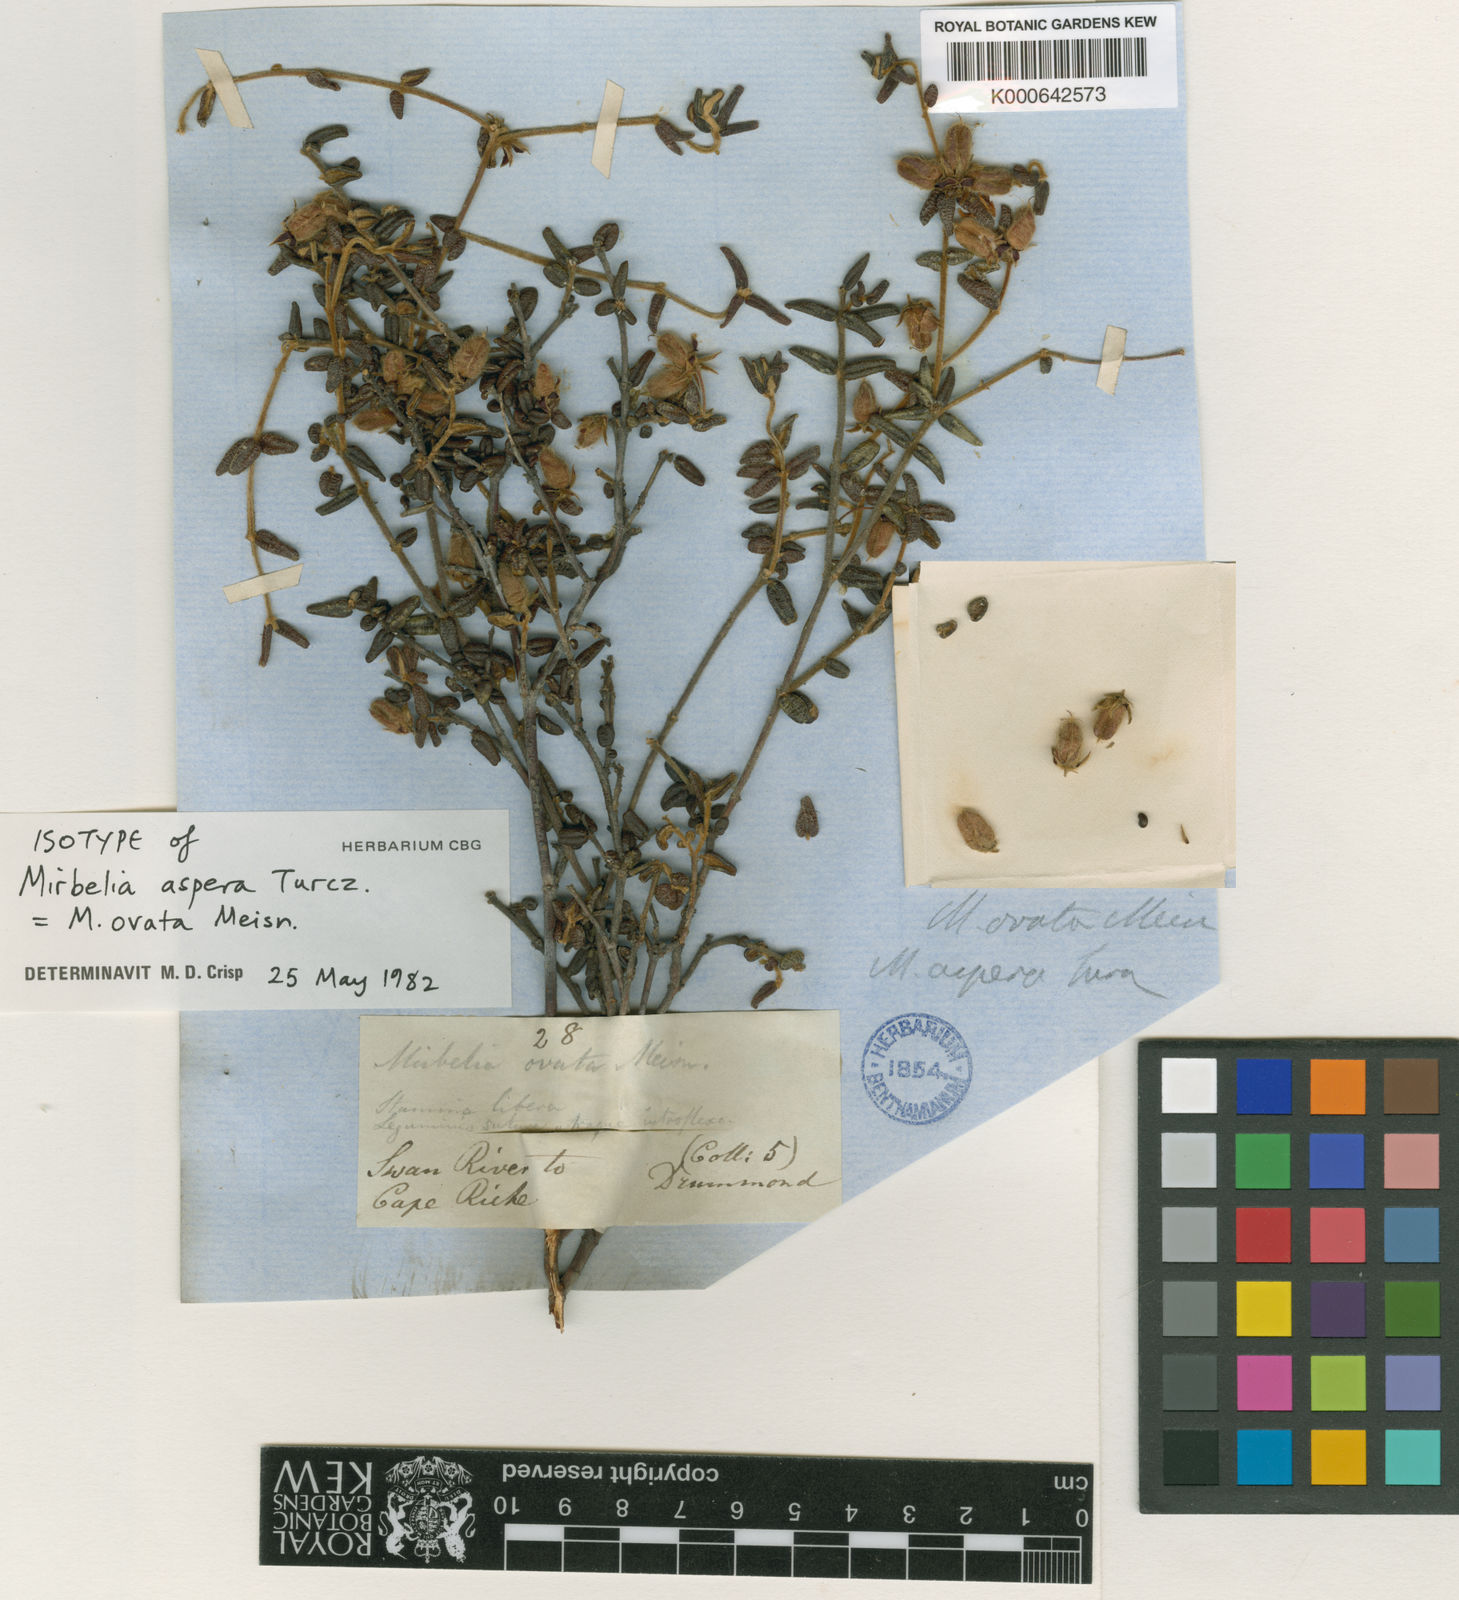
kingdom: Plantae
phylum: Tracheophyta
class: Magnoliopsida
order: Fabales
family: Fabaceae
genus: Mirbelia
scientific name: Mirbelia ovata
